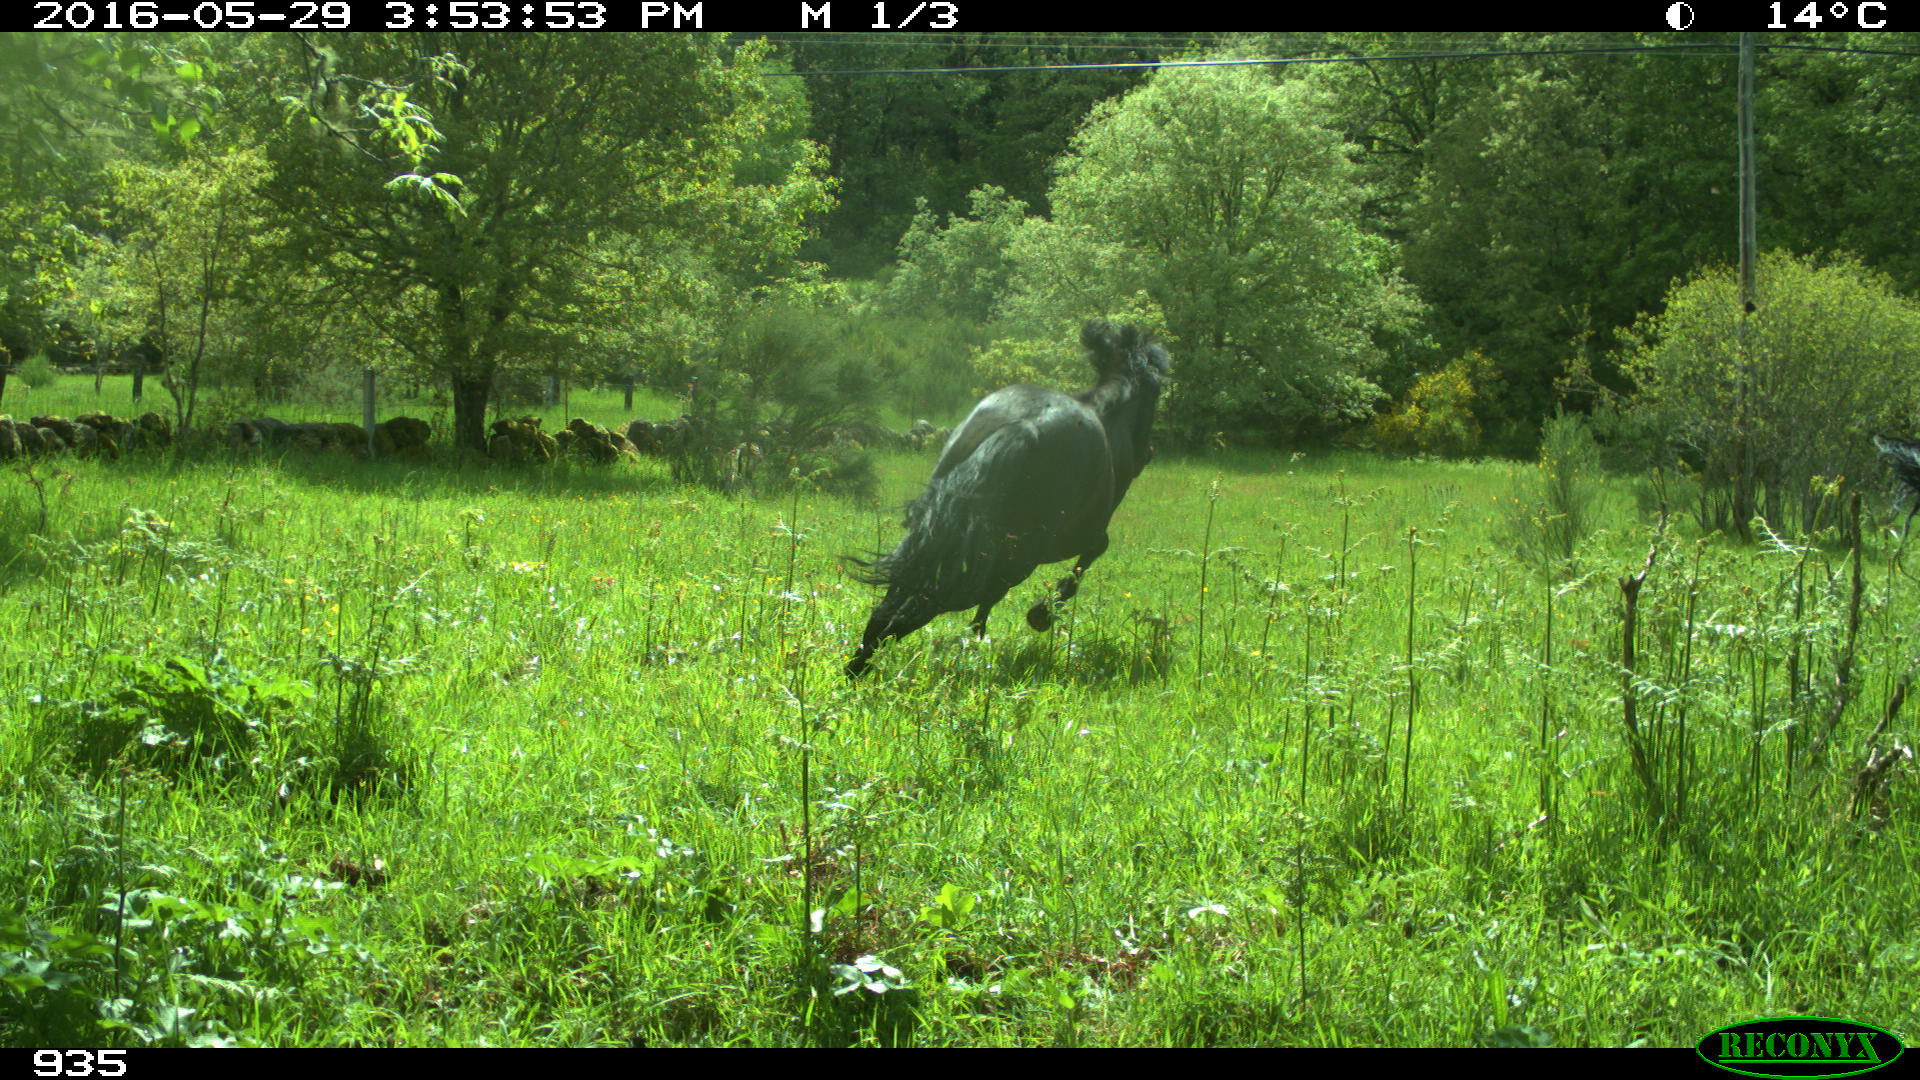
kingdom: Animalia
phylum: Chordata
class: Mammalia
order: Perissodactyla
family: Equidae
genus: Equus
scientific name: Equus caballus
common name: Horse
